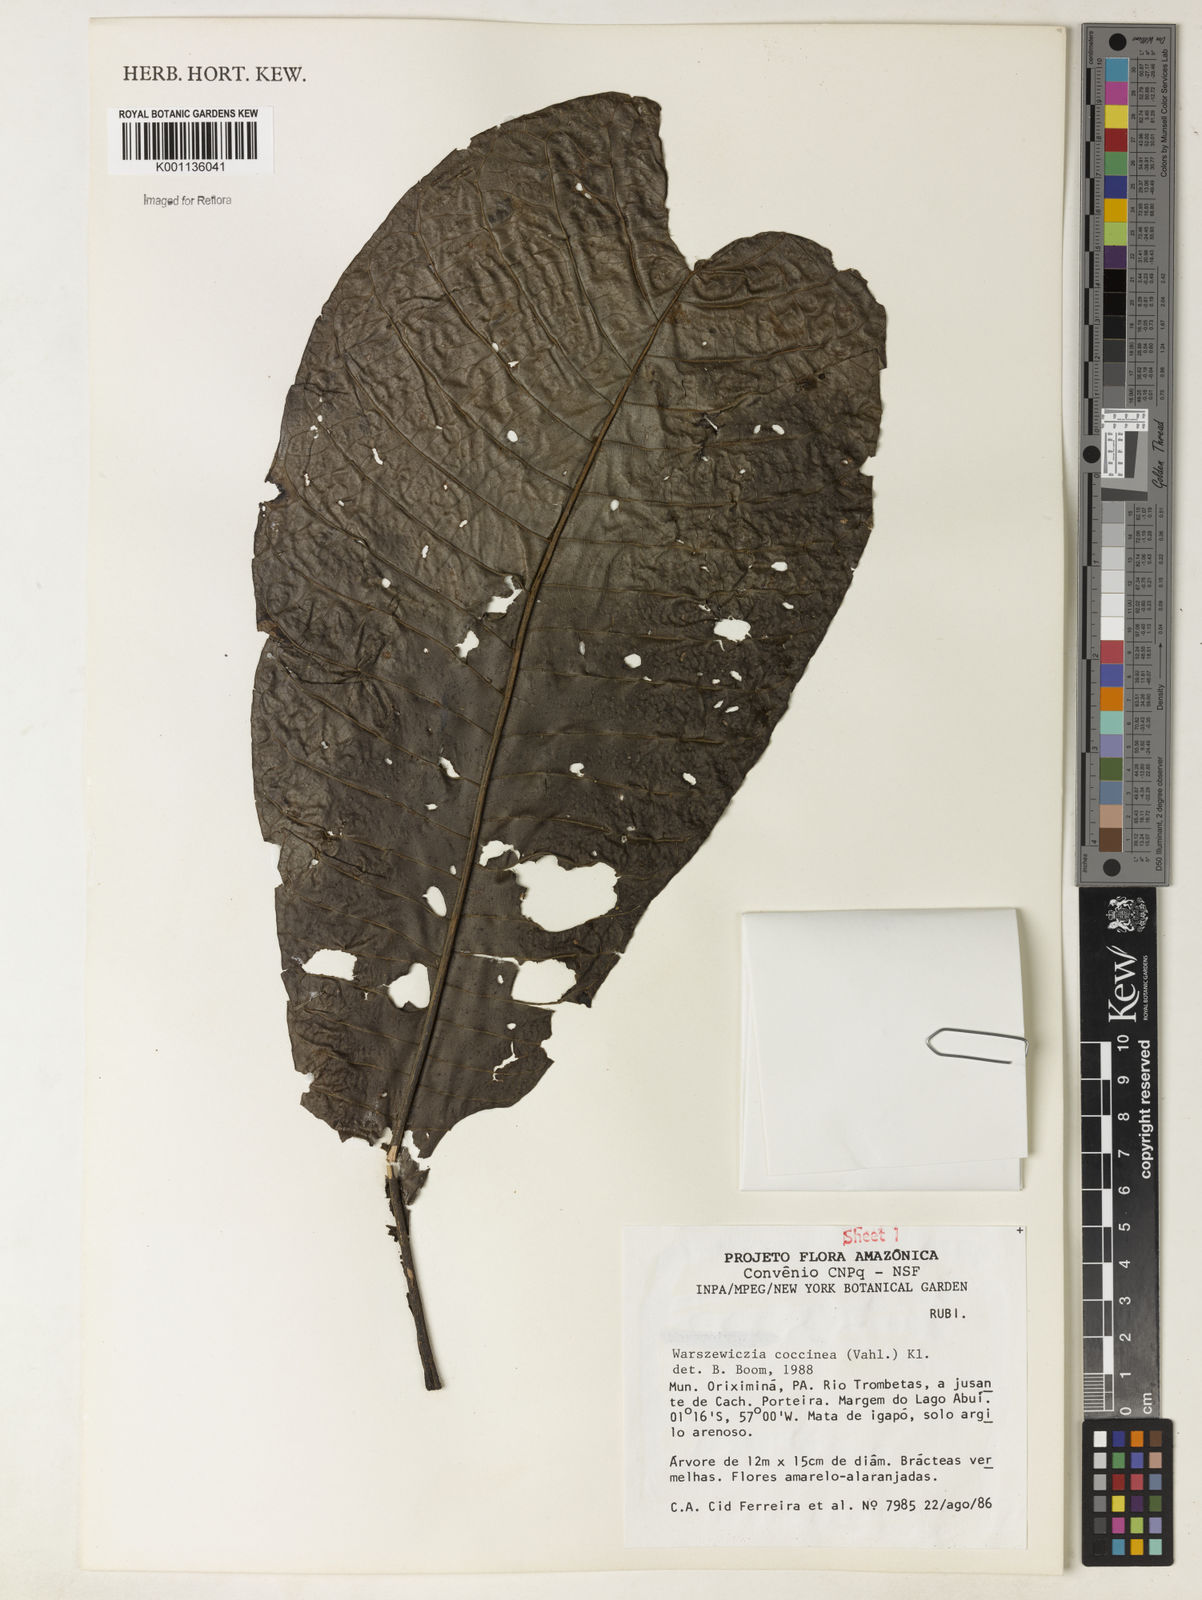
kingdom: Plantae
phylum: Tracheophyta
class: Magnoliopsida
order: Gentianales
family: Rubiaceae
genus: Warszewiczia
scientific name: Warszewiczia coccinea
